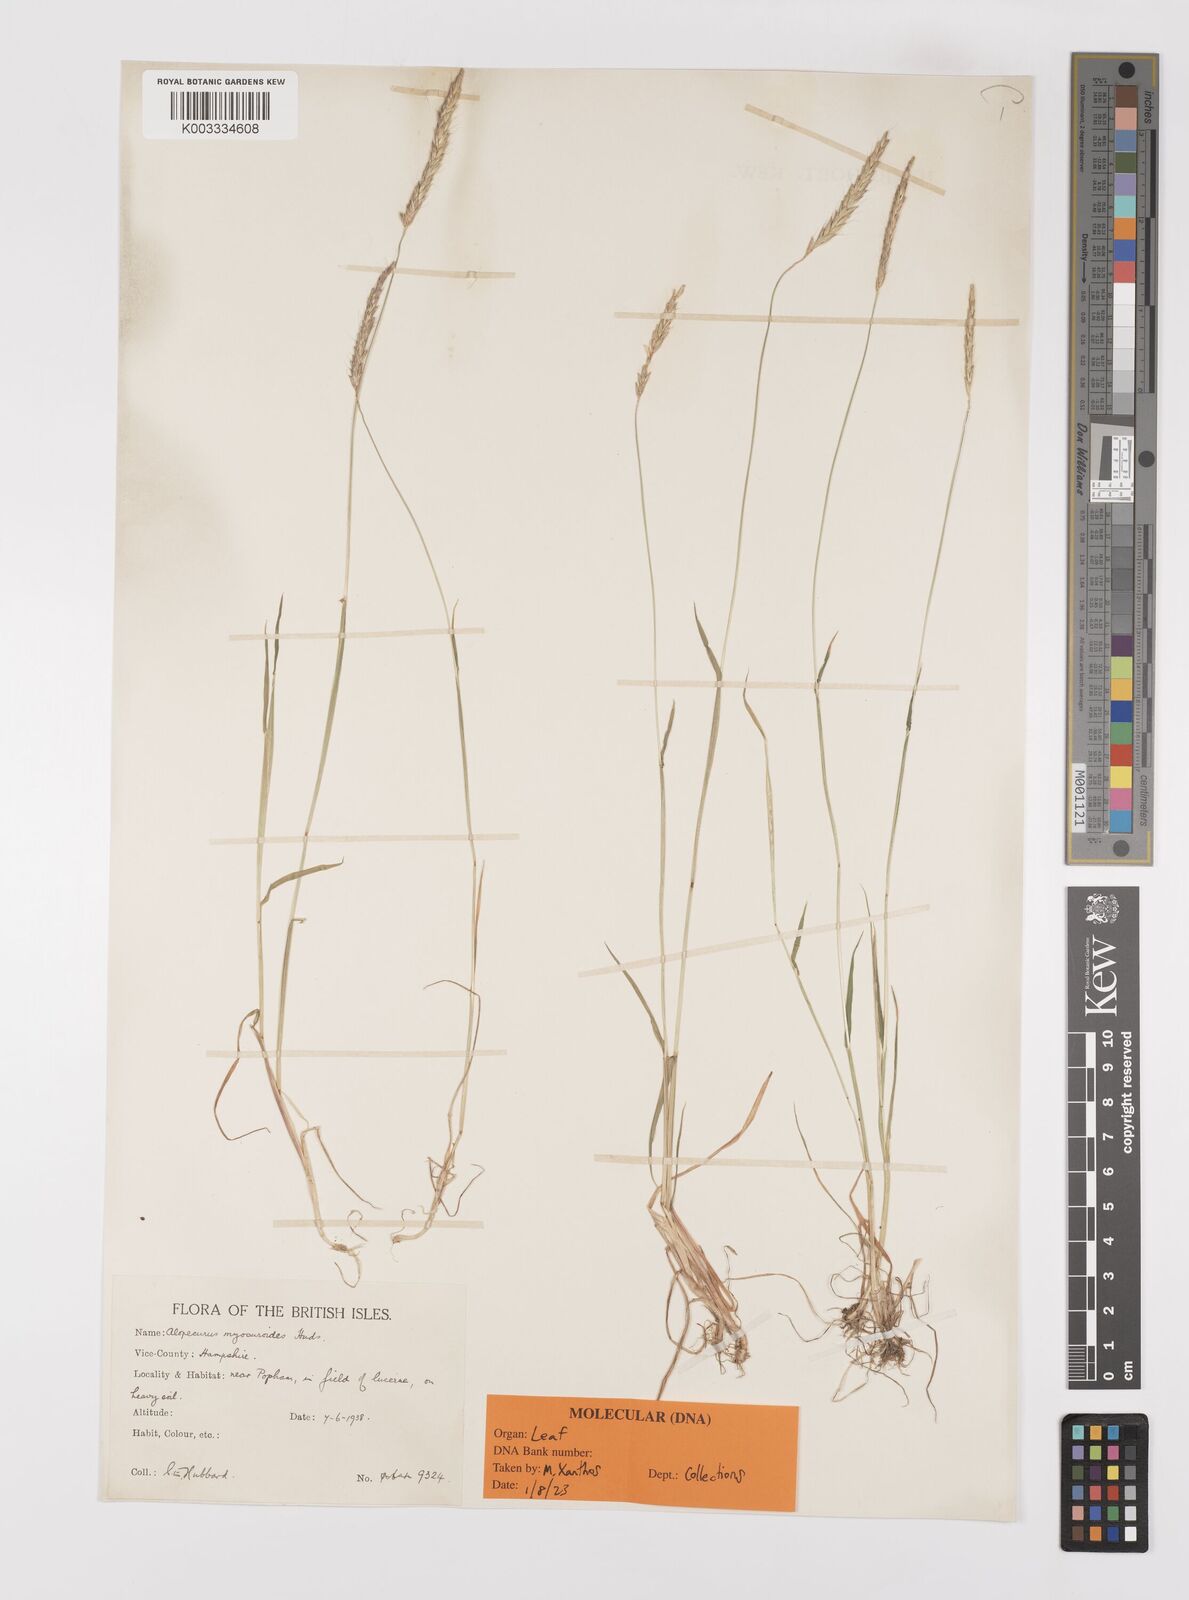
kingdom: Plantae
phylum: Tracheophyta
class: Liliopsida
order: Poales
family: Poaceae
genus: Alopecurus
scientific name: Alopecurus myosuroides
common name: Black-grass
